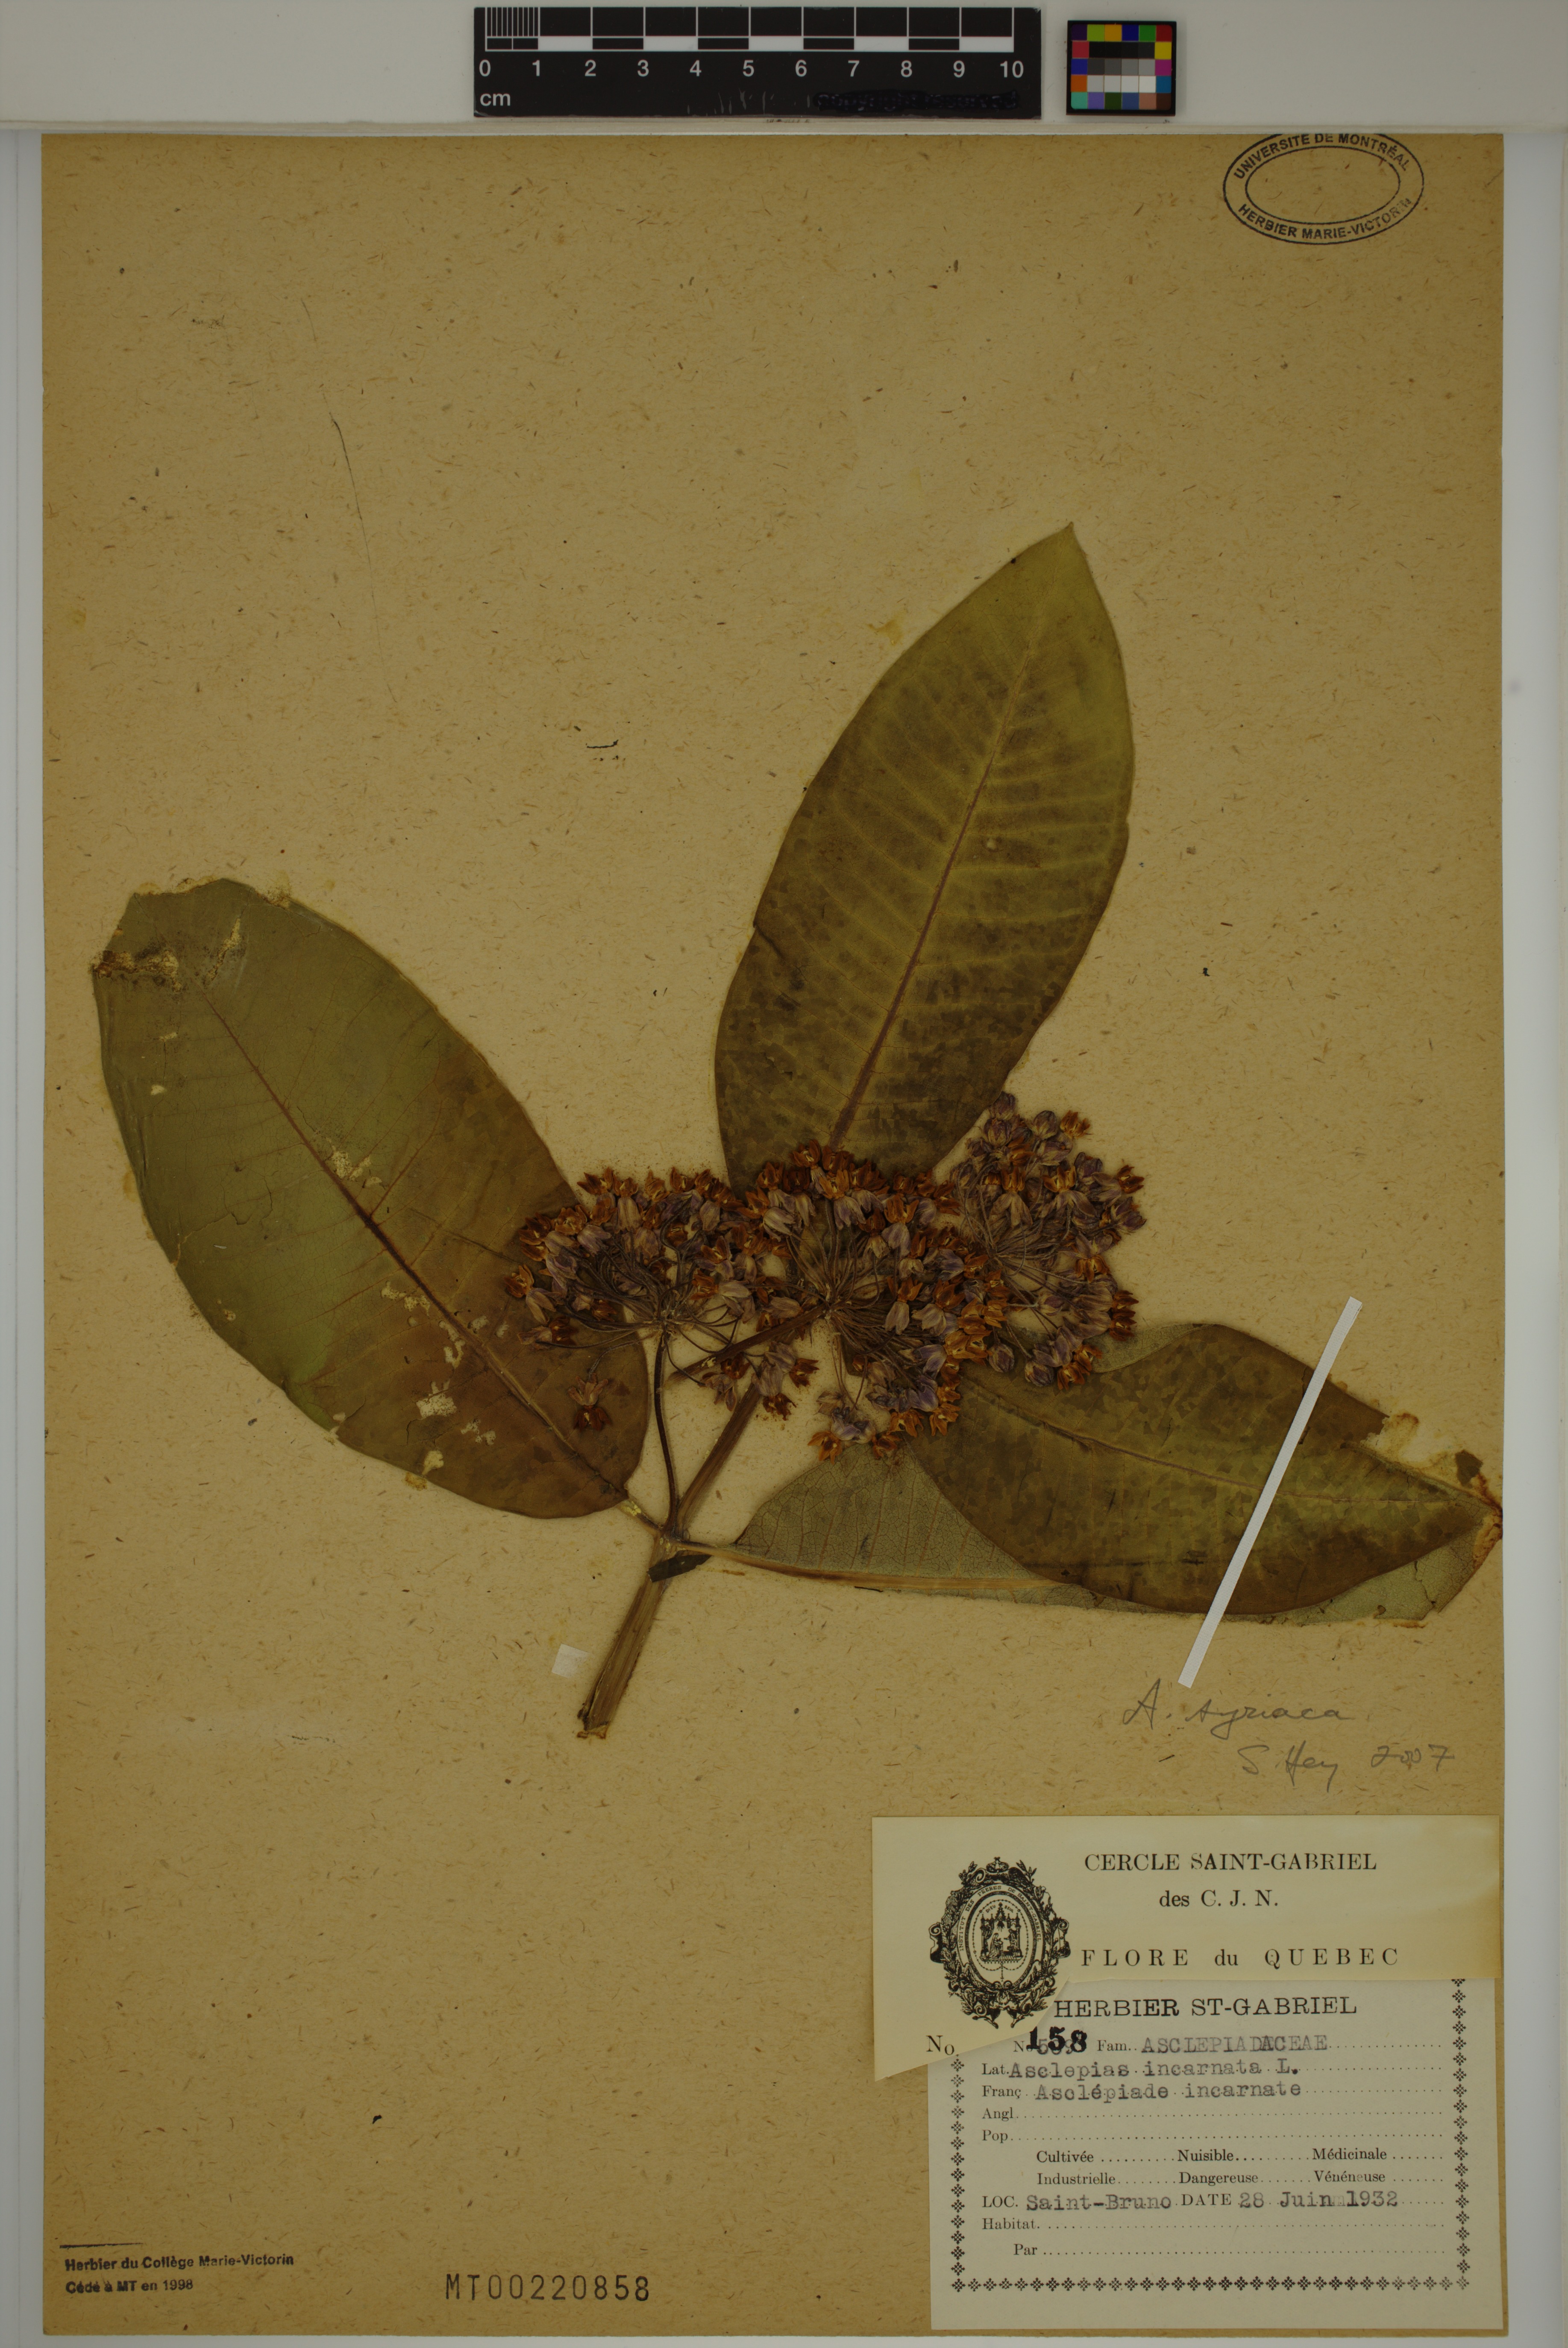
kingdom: Plantae
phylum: Tracheophyta
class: Magnoliopsida
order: Gentianales
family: Apocynaceae
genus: Asclepias
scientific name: Asclepias syriaca
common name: Common milkweed
